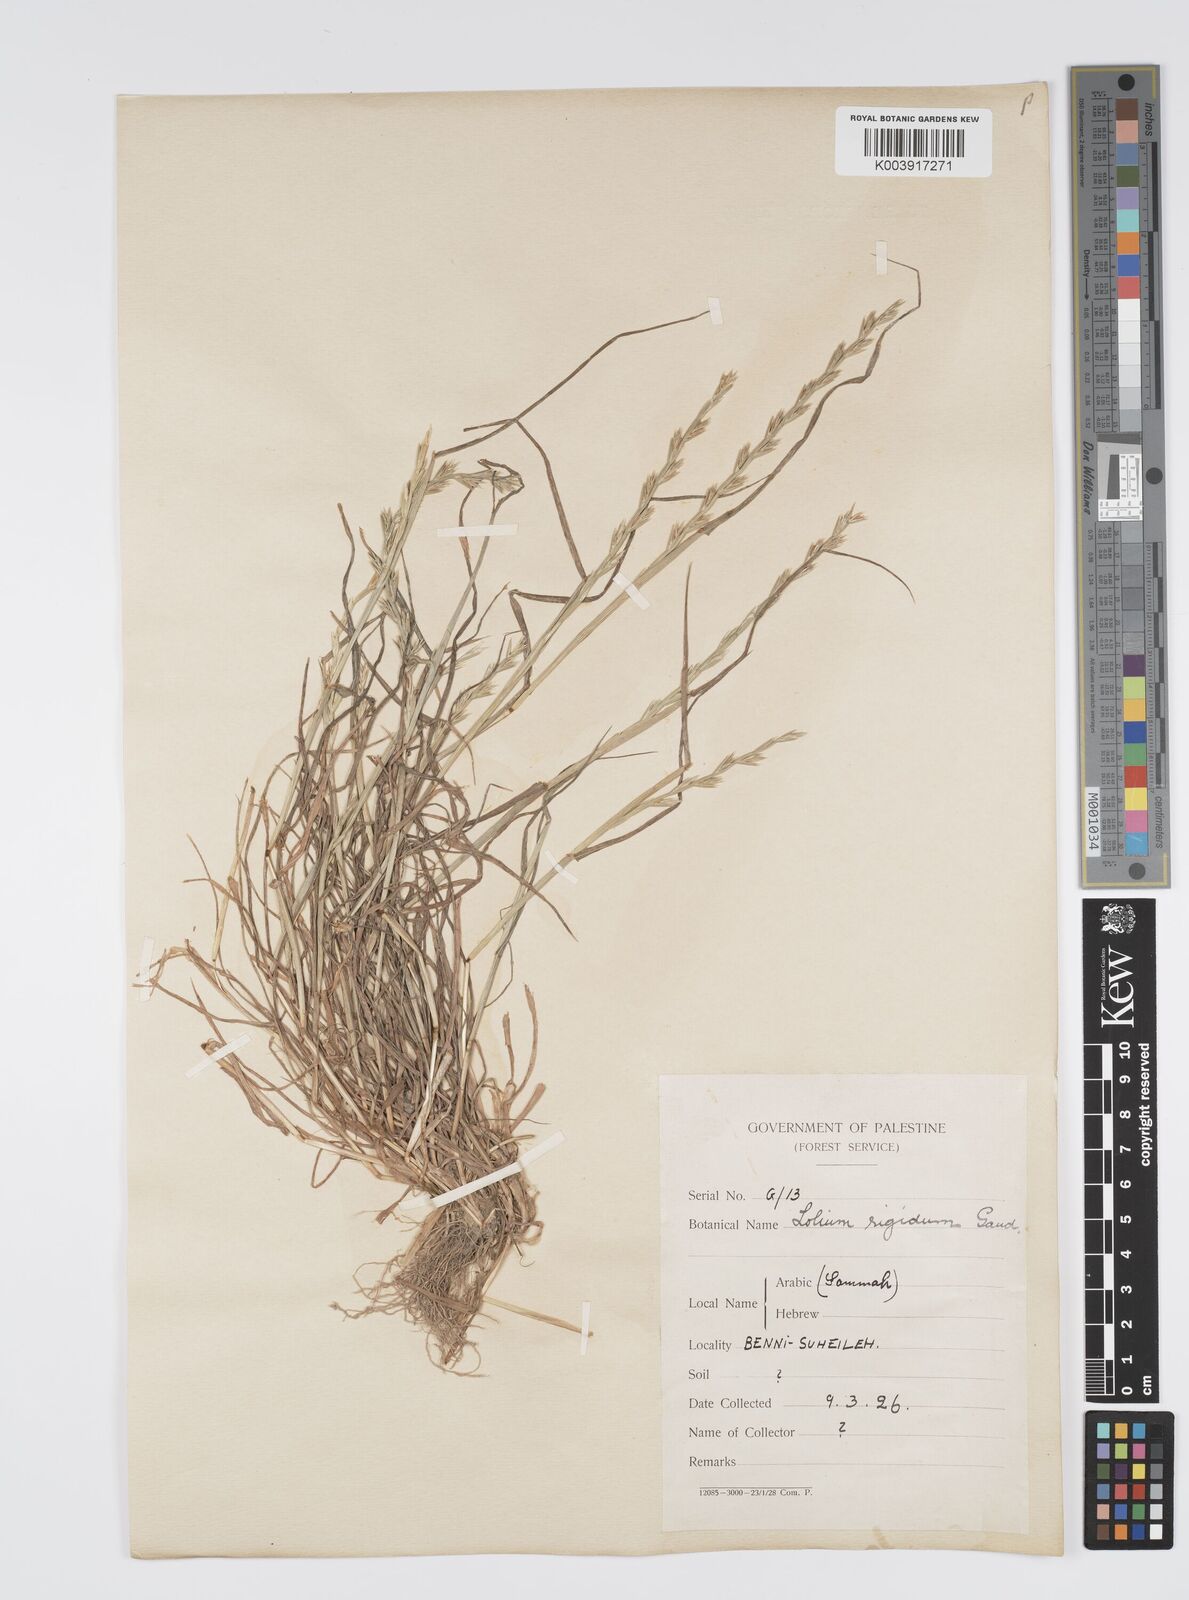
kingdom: Plantae
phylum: Tracheophyta
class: Liliopsida
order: Poales
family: Poaceae
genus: Lolium
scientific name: Lolium rigidum
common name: Wimmera ryegrass
